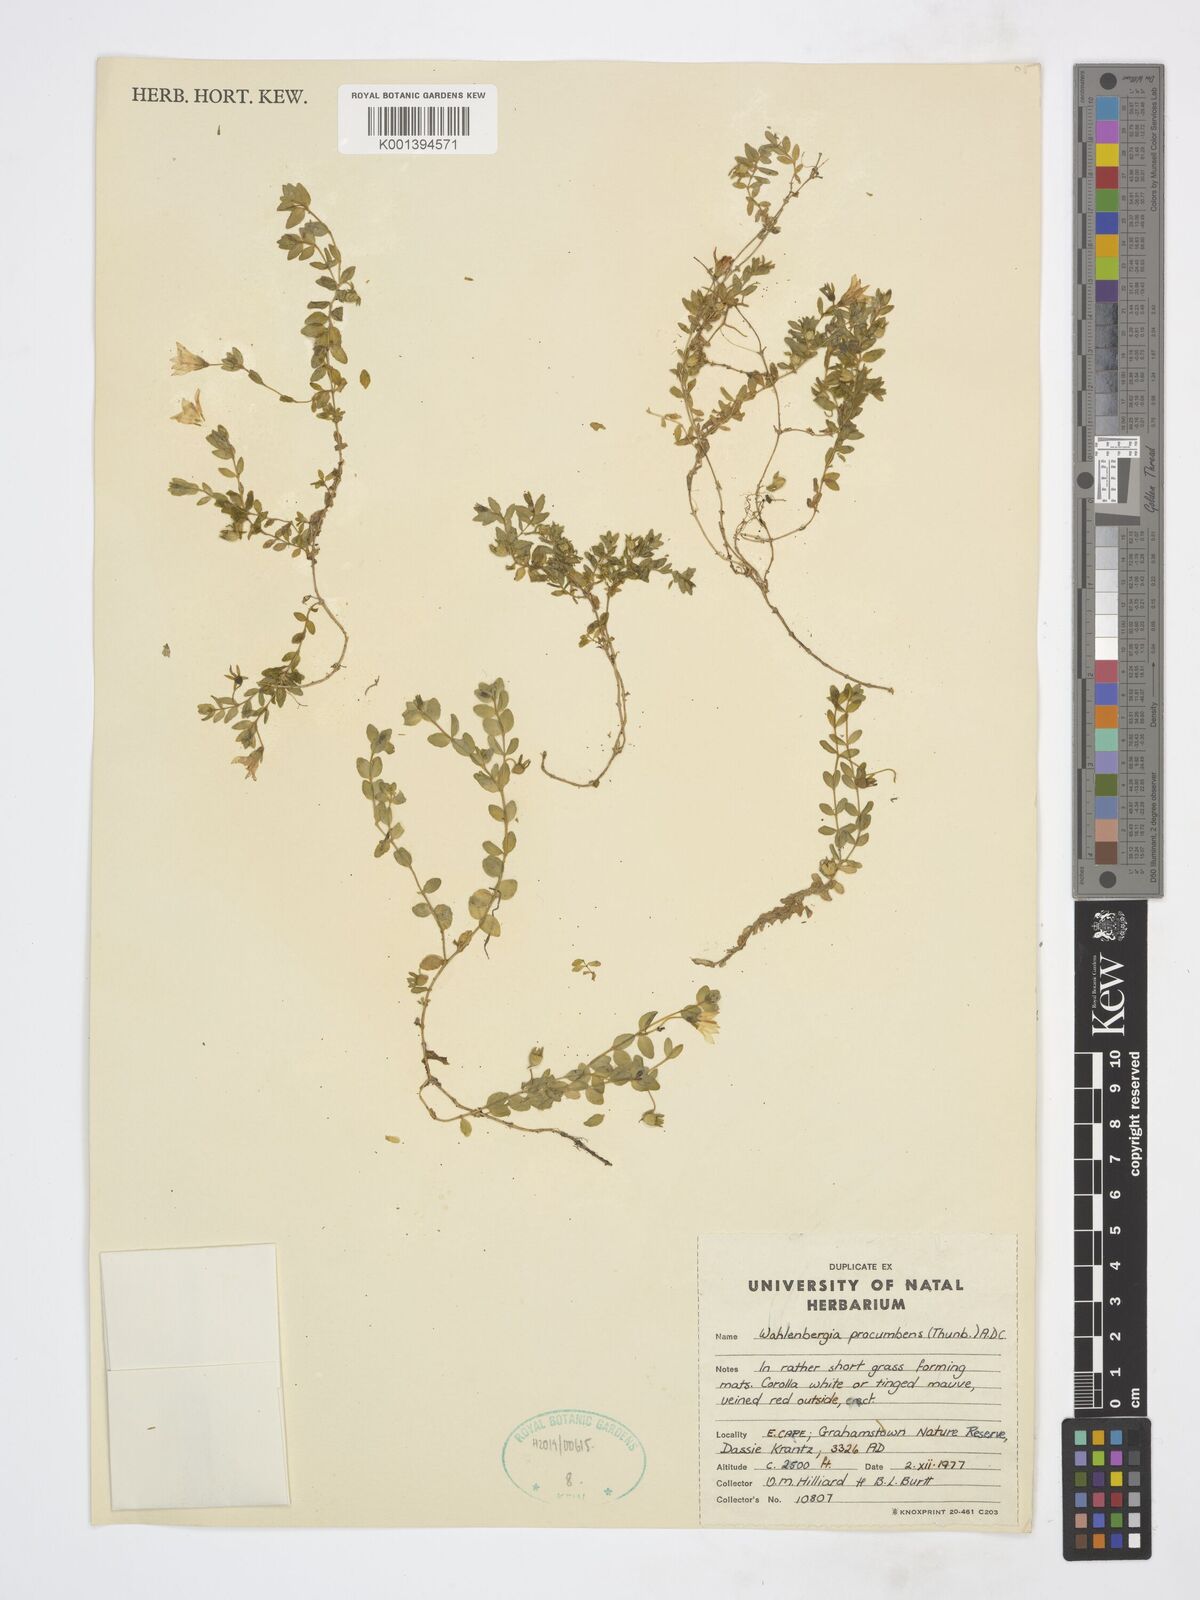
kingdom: Plantae
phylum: Tracheophyta
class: Magnoliopsida
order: Asterales
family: Campanulaceae
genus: Wahlenbergia
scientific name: Wahlenbergia procumbens
